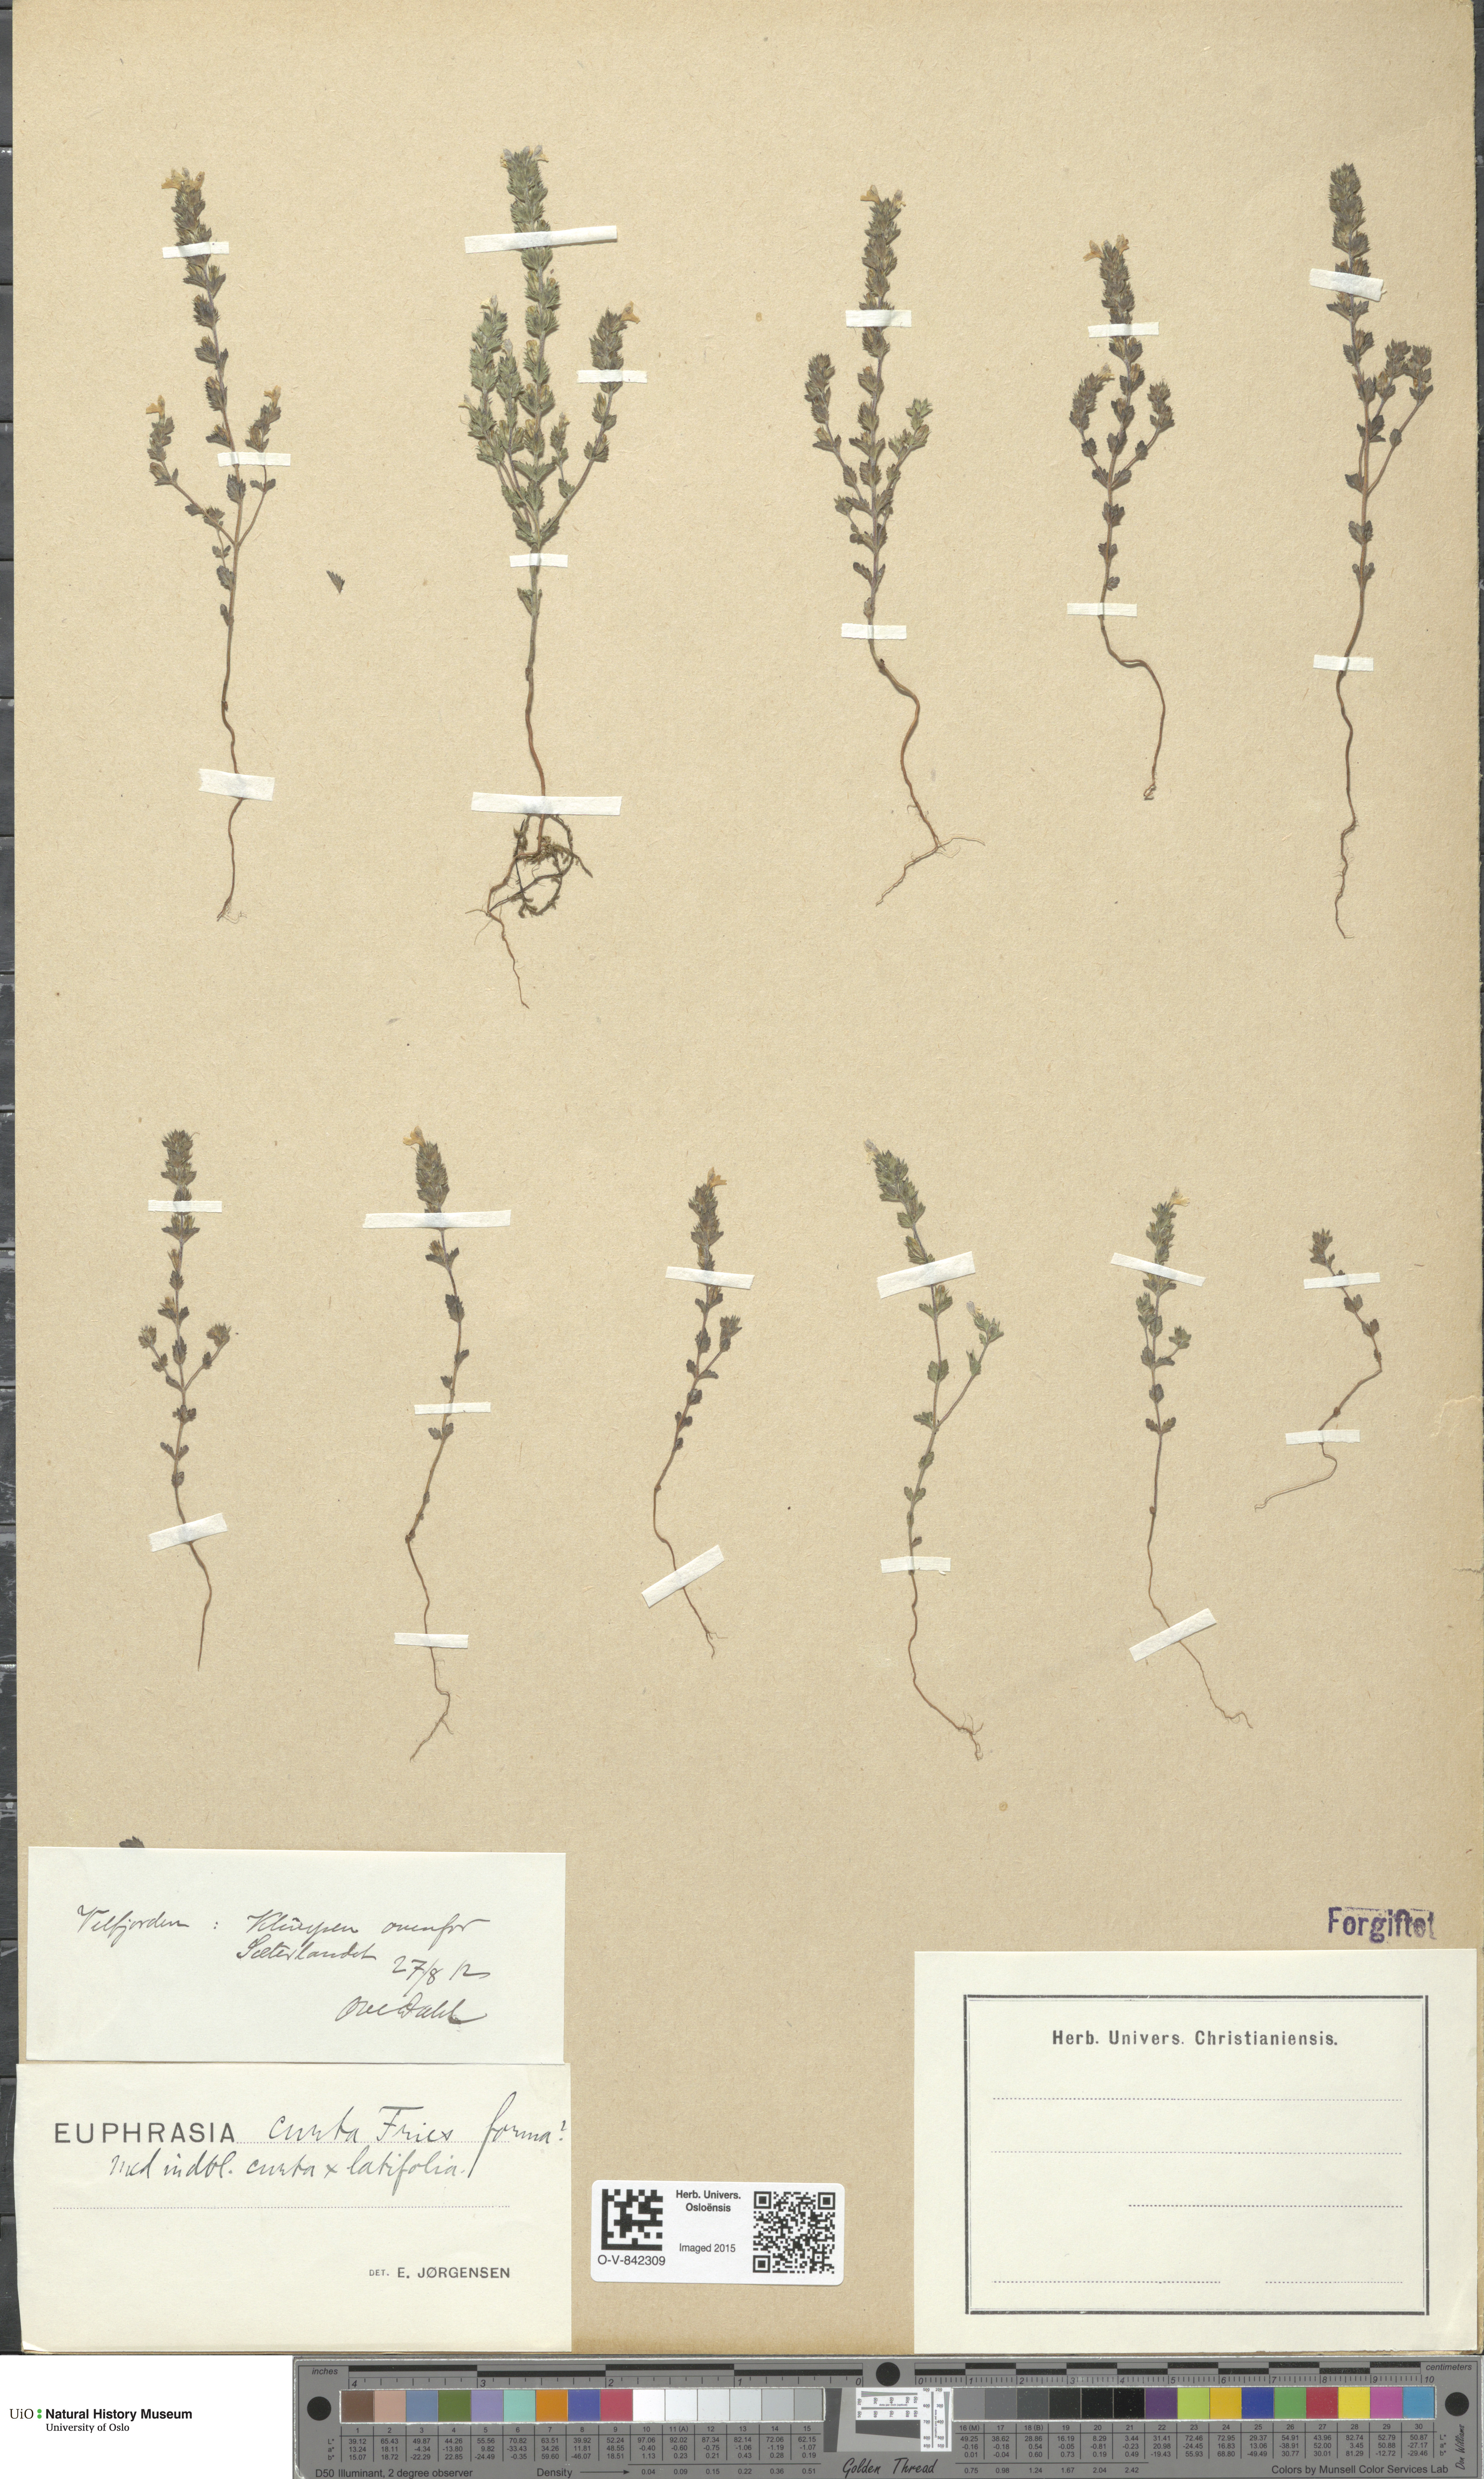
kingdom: Plantae
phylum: Tracheophyta
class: Magnoliopsida
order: Lamiales
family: Orobanchaceae
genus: Euphrasia
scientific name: Euphrasia micrantha
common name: Northern eyebright
